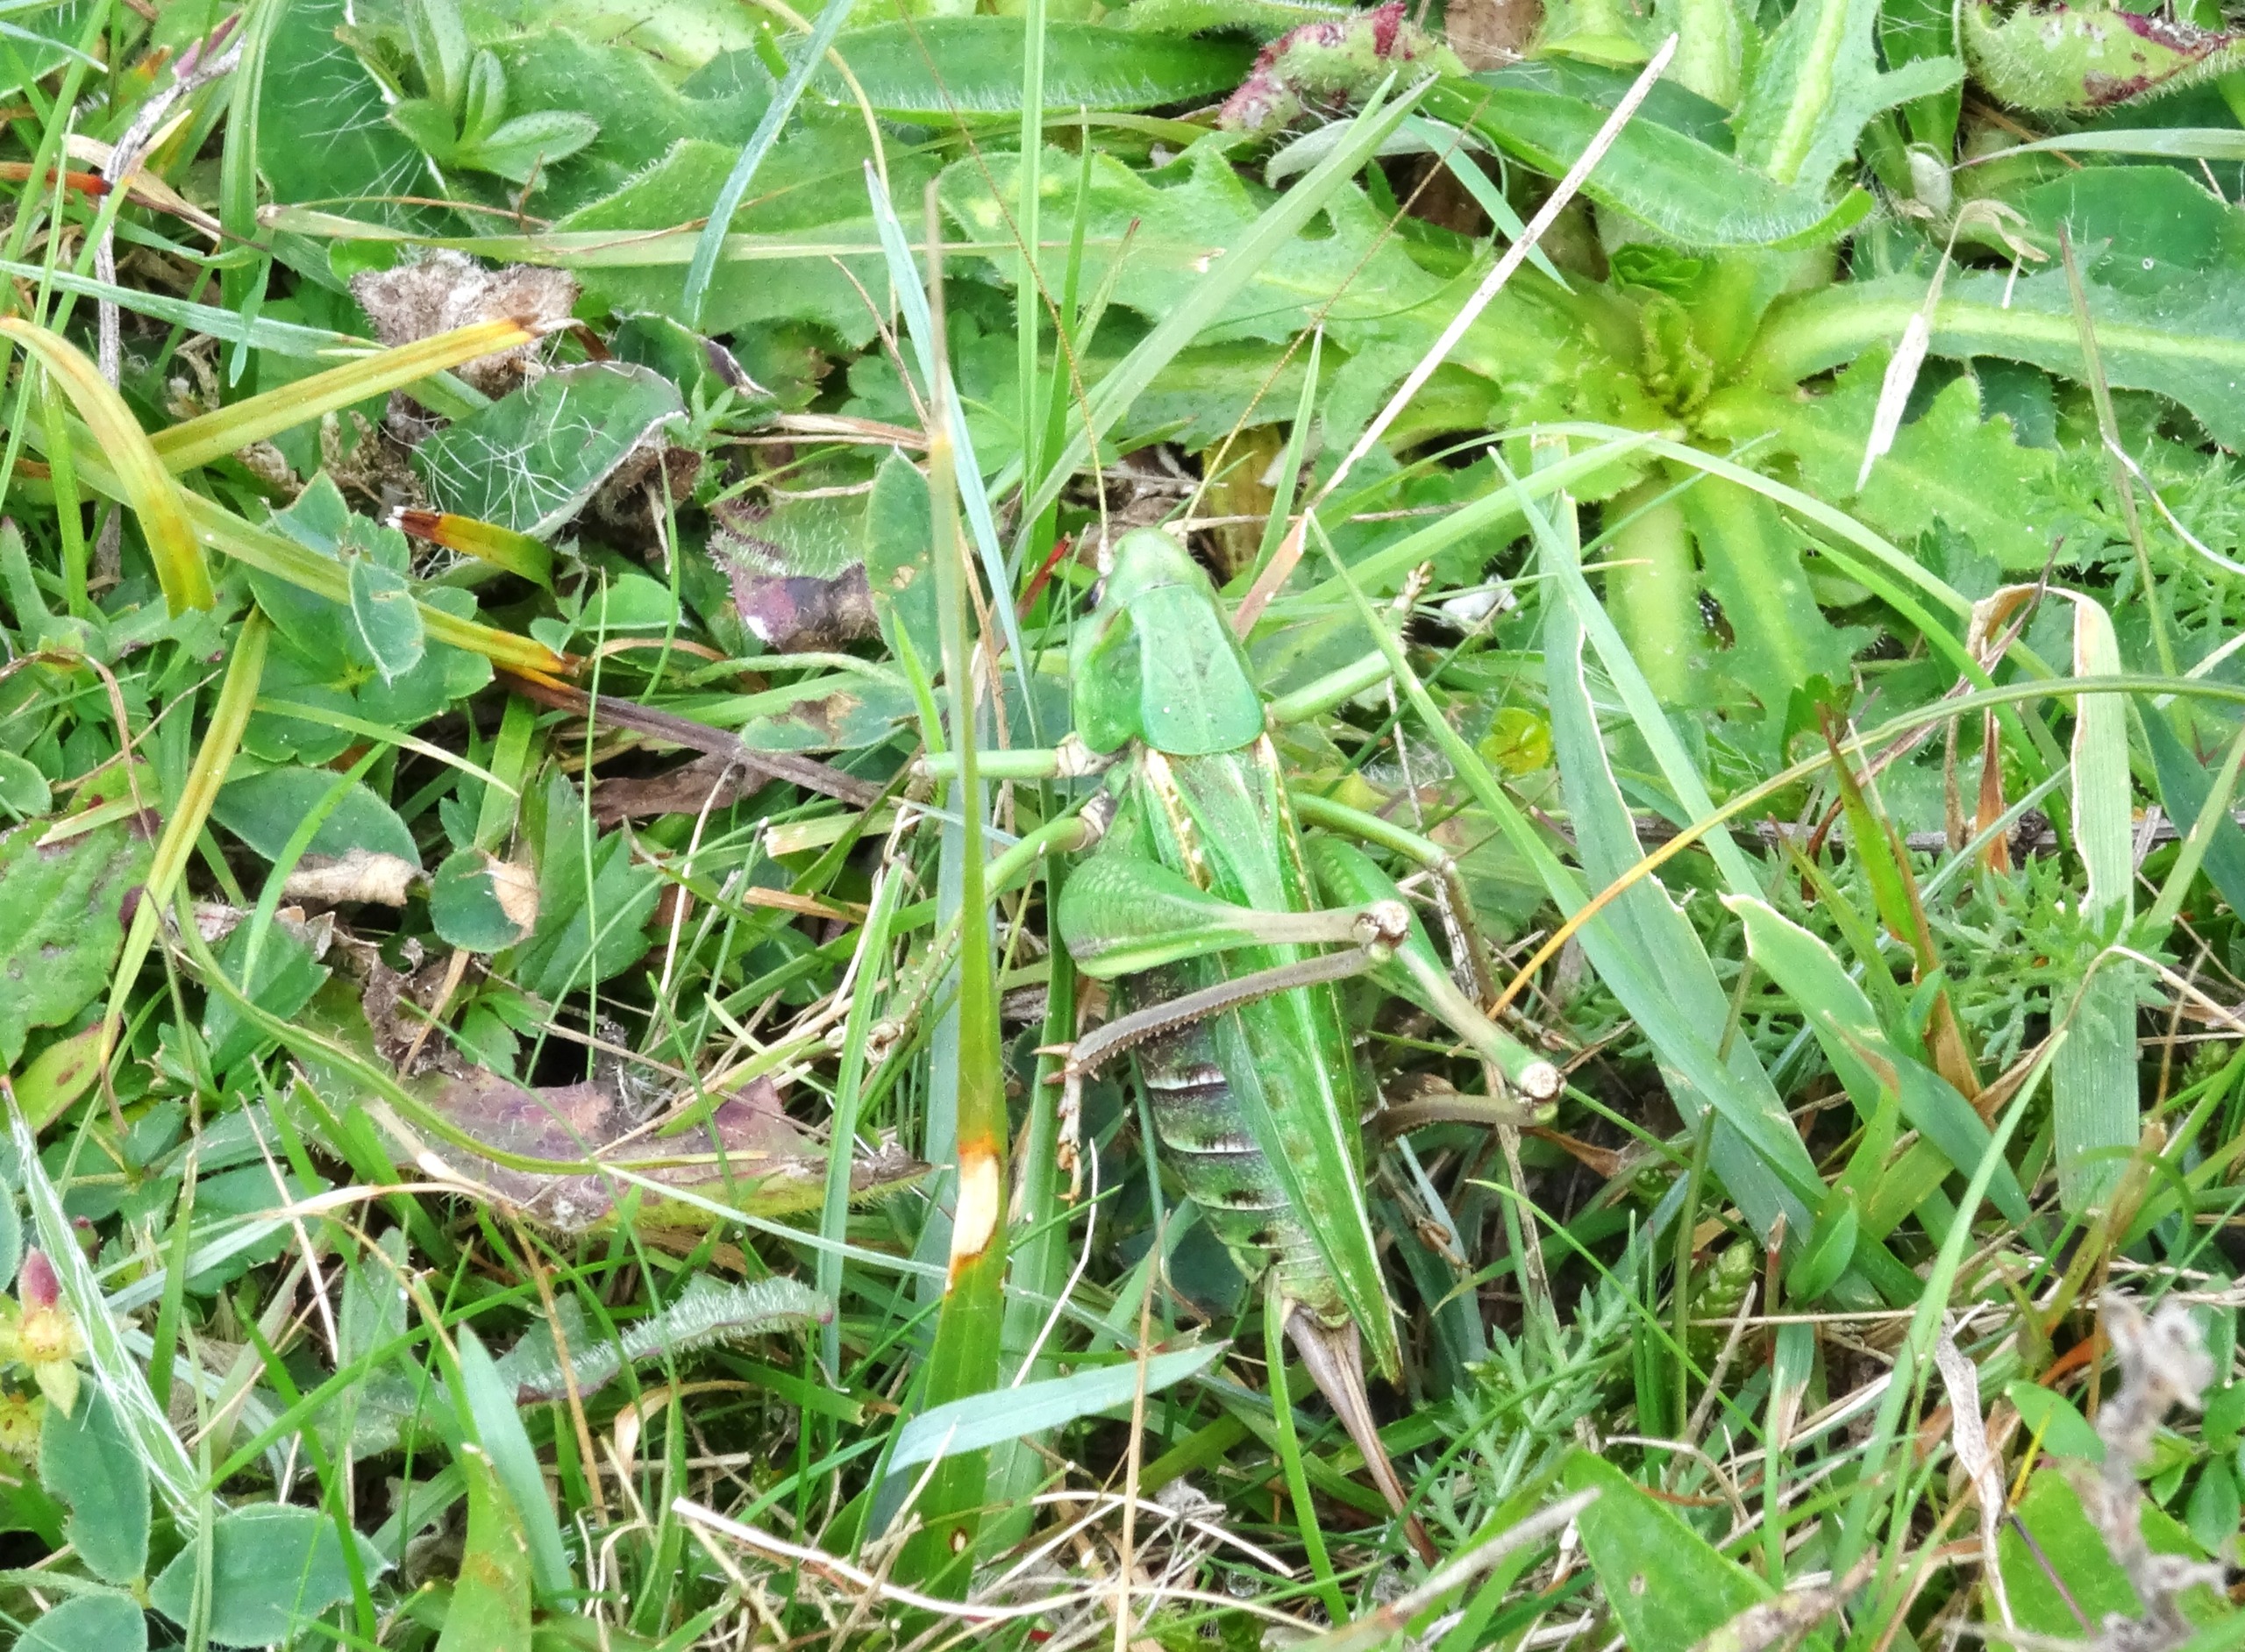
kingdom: Animalia
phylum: Arthropoda
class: Insecta
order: Orthoptera
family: Tettigoniidae
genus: Decticus
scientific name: Decticus verrucivorus
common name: Vortebider
